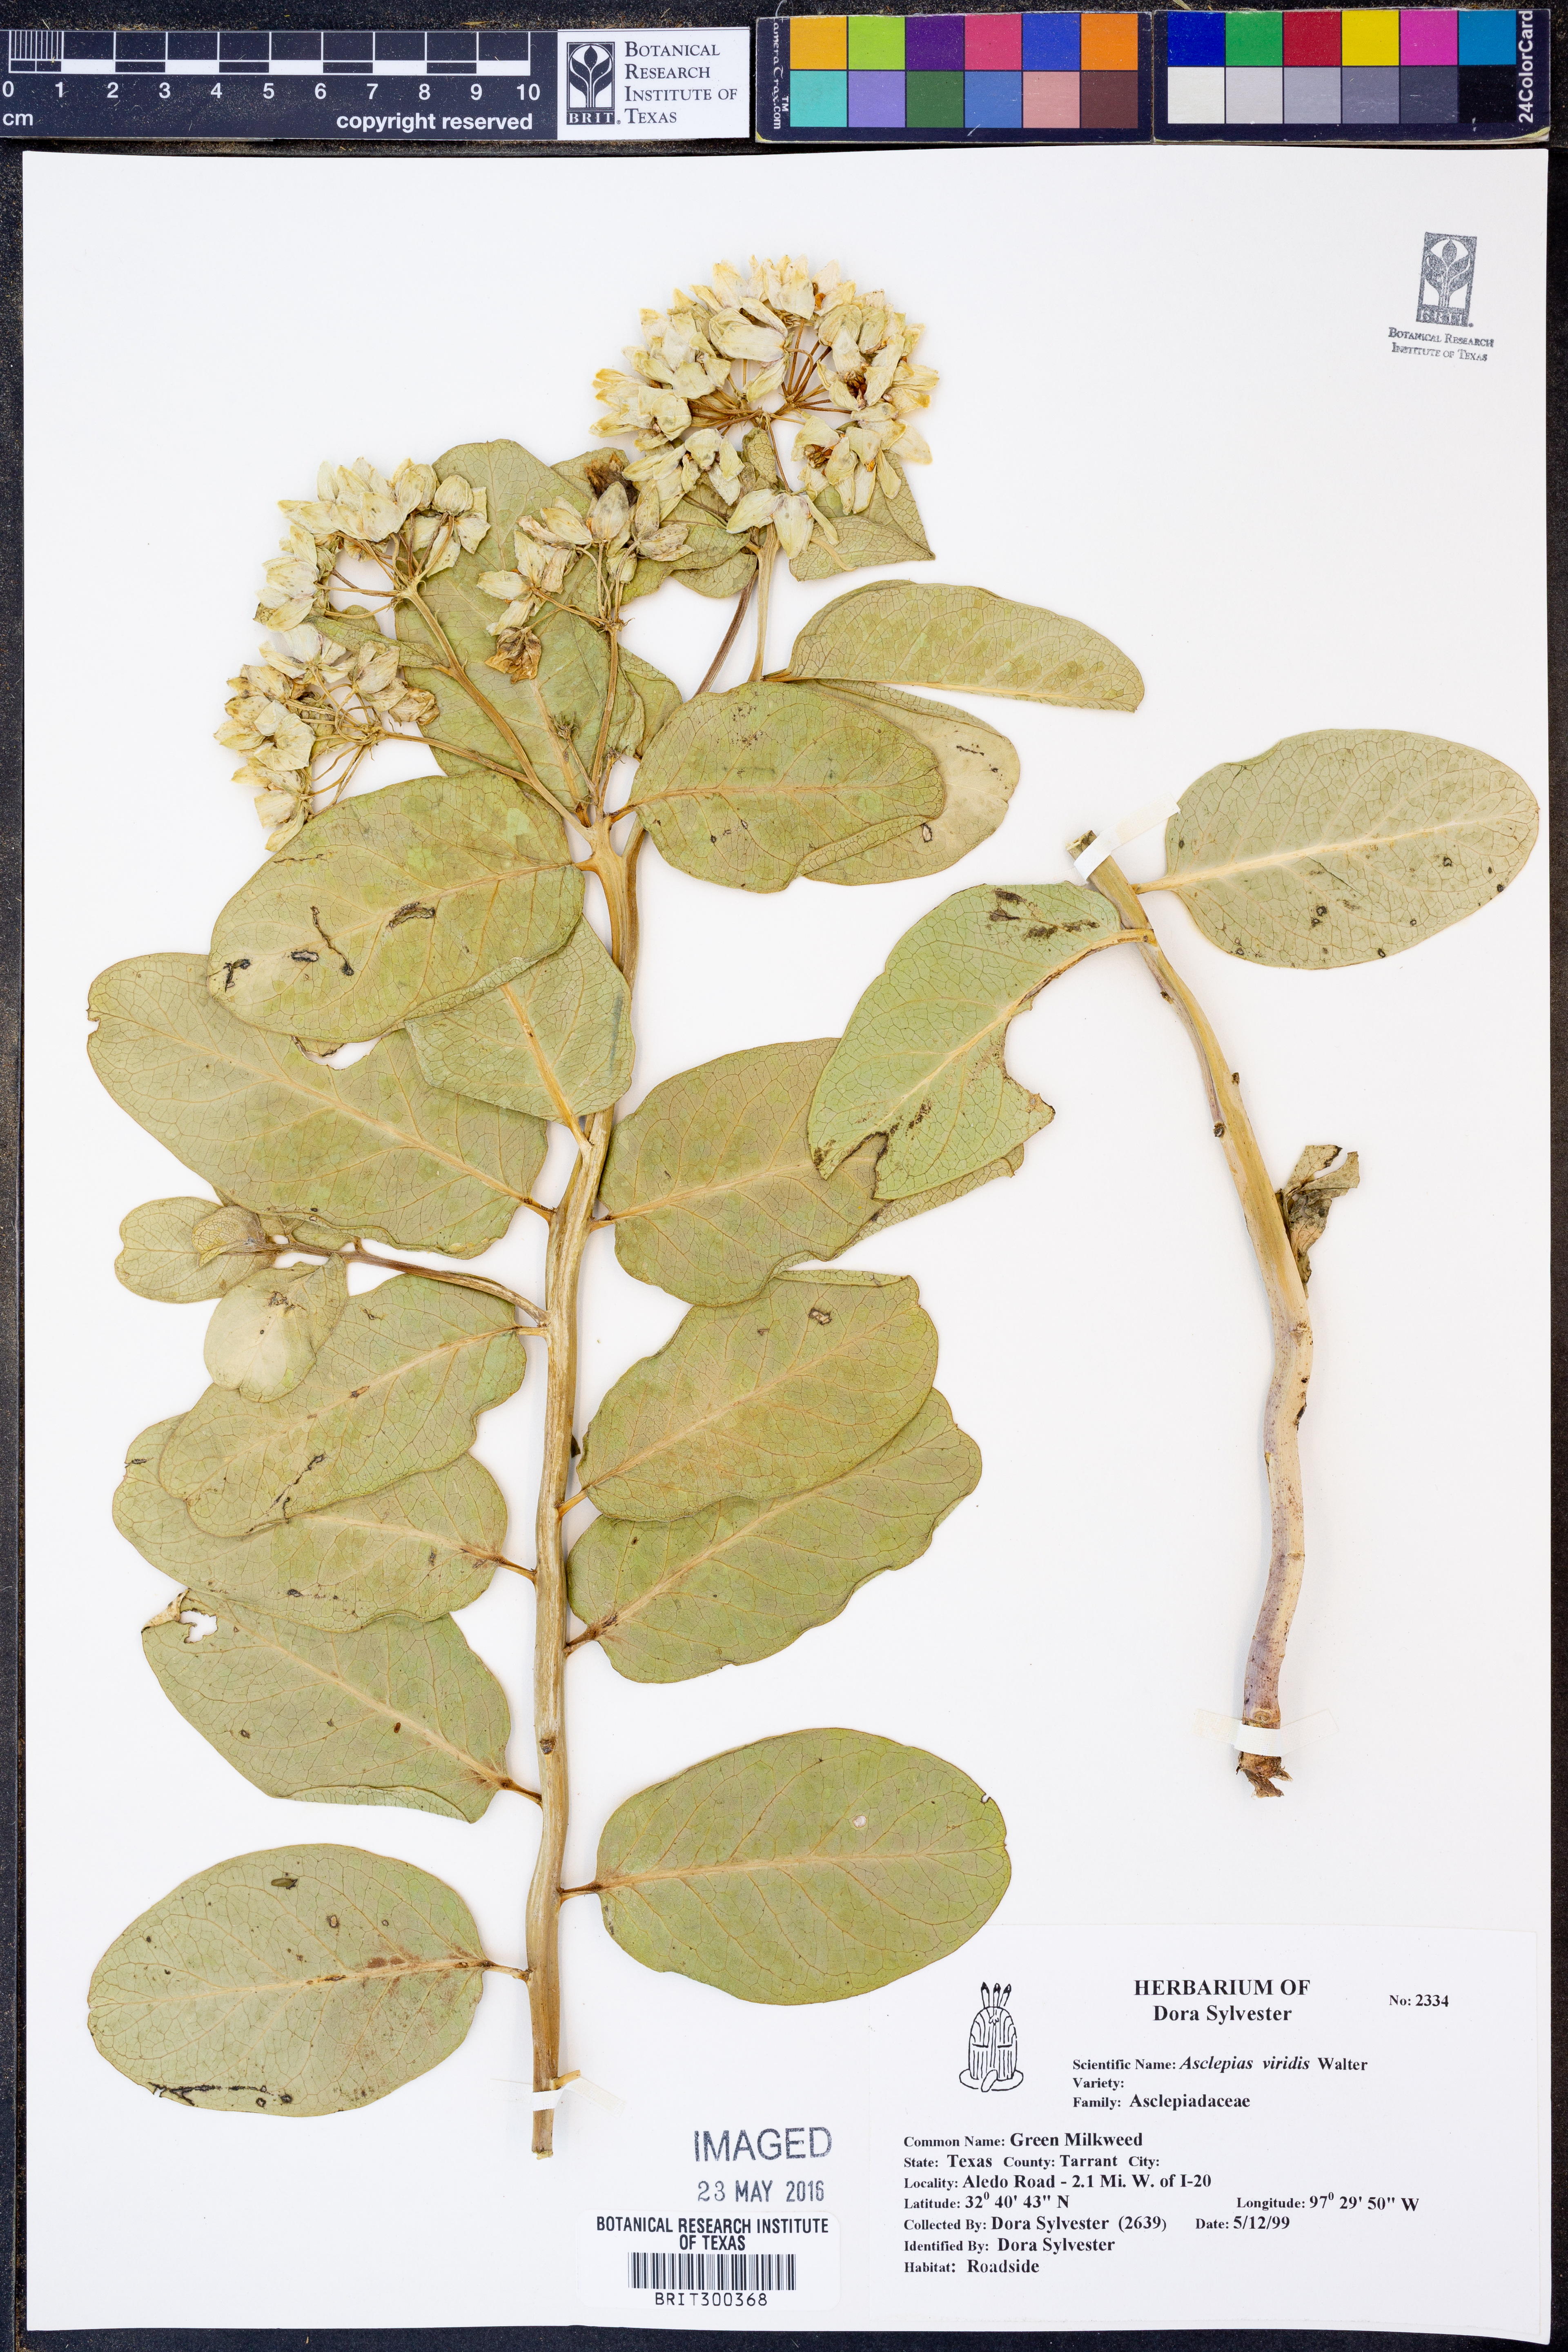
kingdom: Plantae
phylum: Tracheophyta
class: Magnoliopsida
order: Gentianales
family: Apocynaceae
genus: Asclepias
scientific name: Asclepias viridis
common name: Antelope-horns
